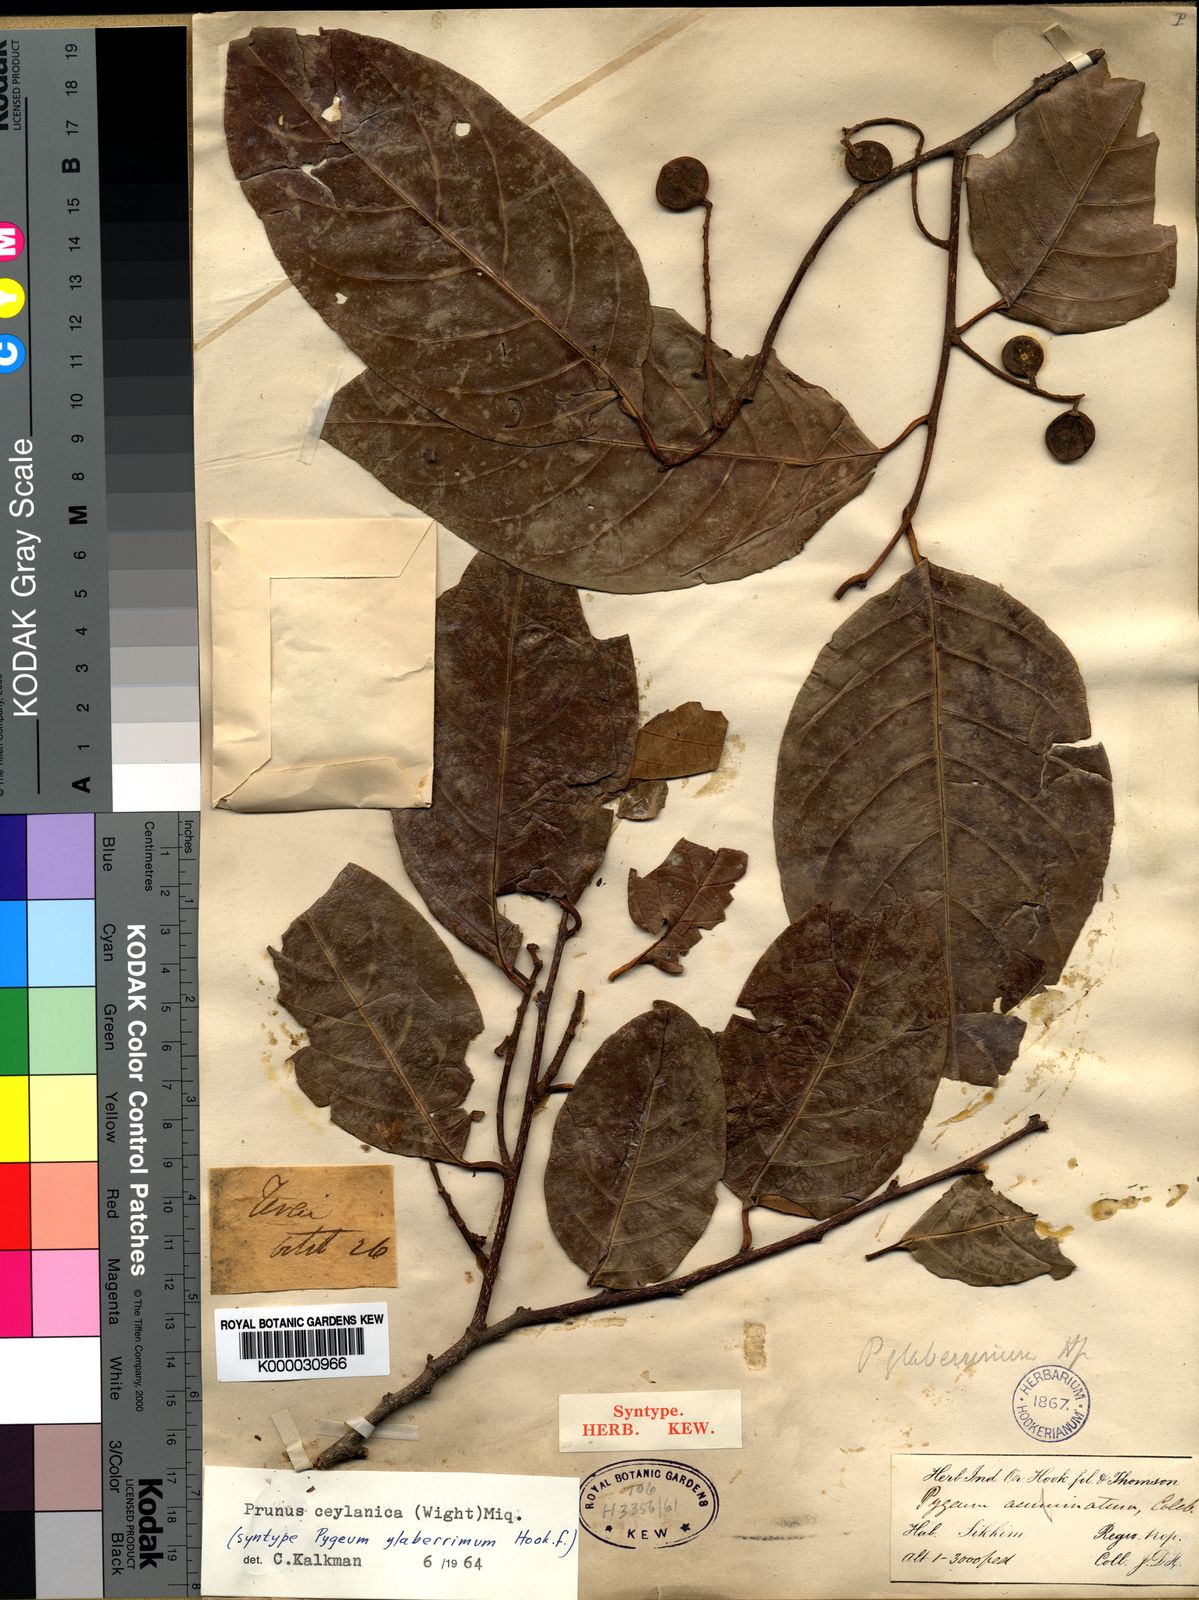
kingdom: Plantae
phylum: Tracheophyta
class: Magnoliopsida
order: Rosales
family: Rosaceae
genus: Prunus
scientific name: Prunus ceylanica
